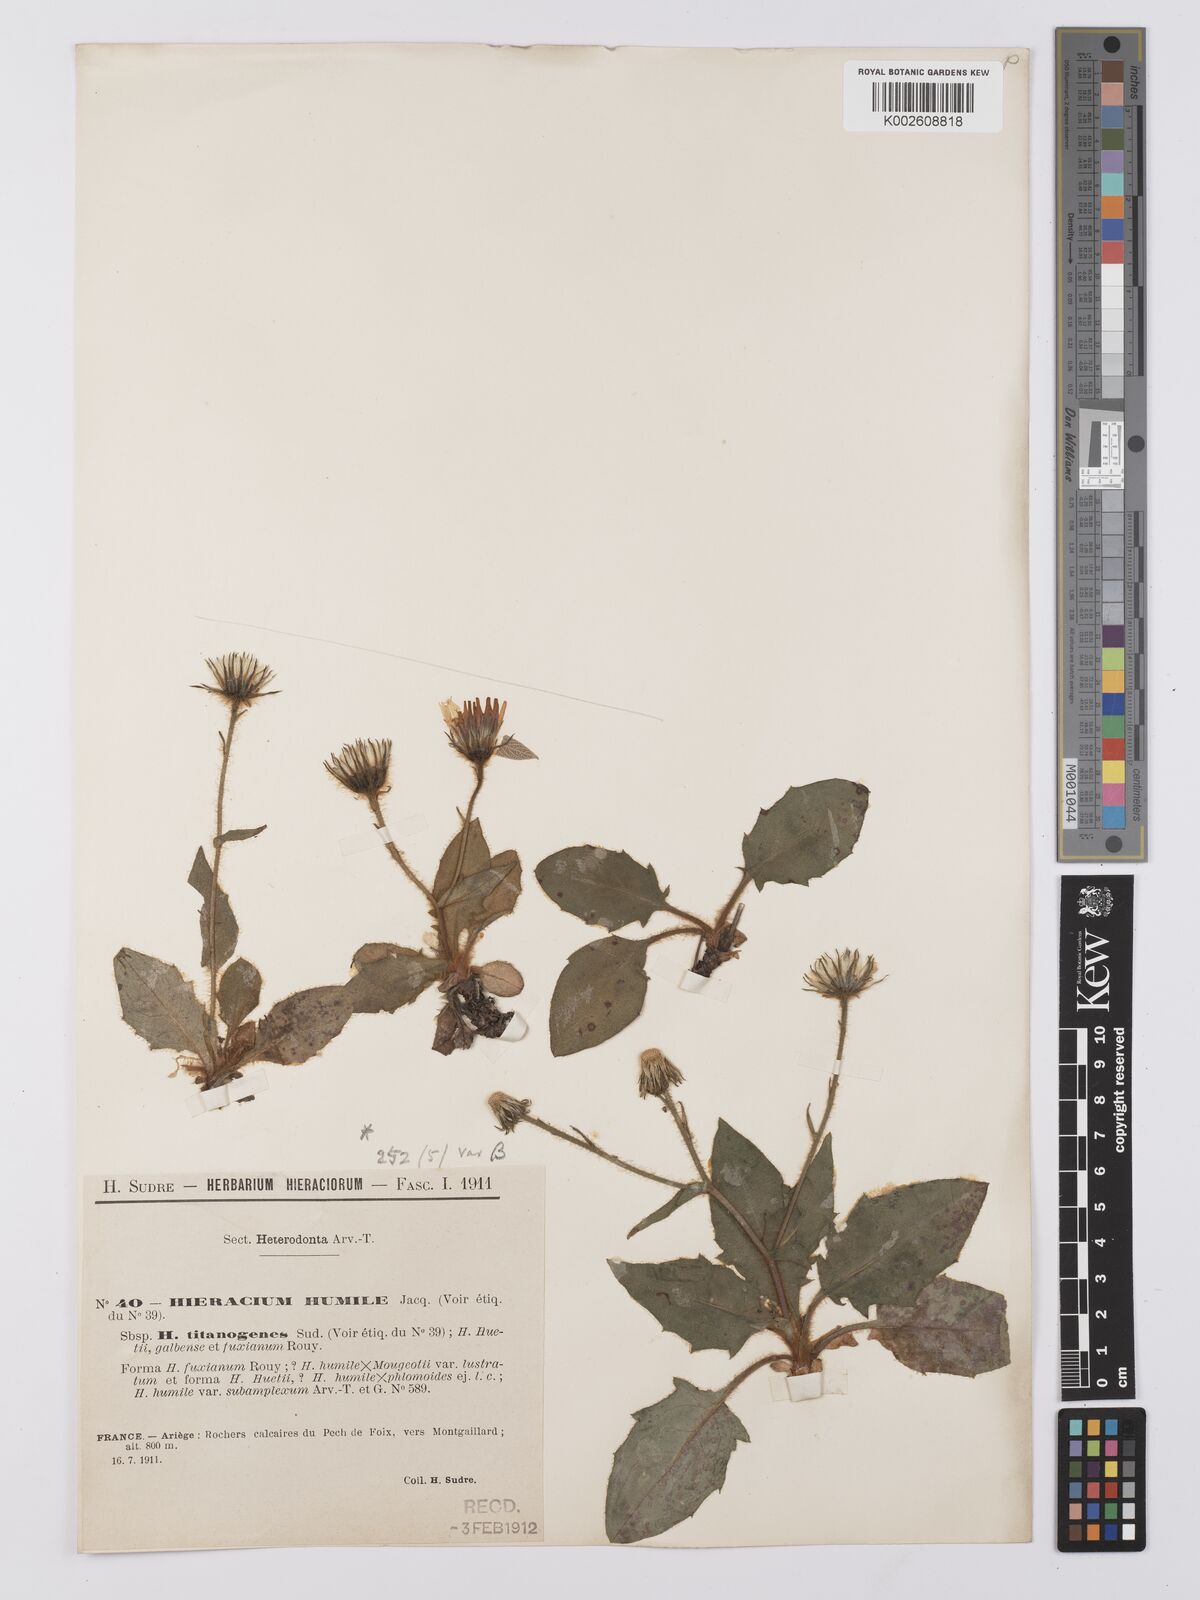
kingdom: Plantae
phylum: Tracheophyta
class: Magnoliopsida
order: Asterales
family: Asteraceae
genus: Hieracium
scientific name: Hieracium humile
